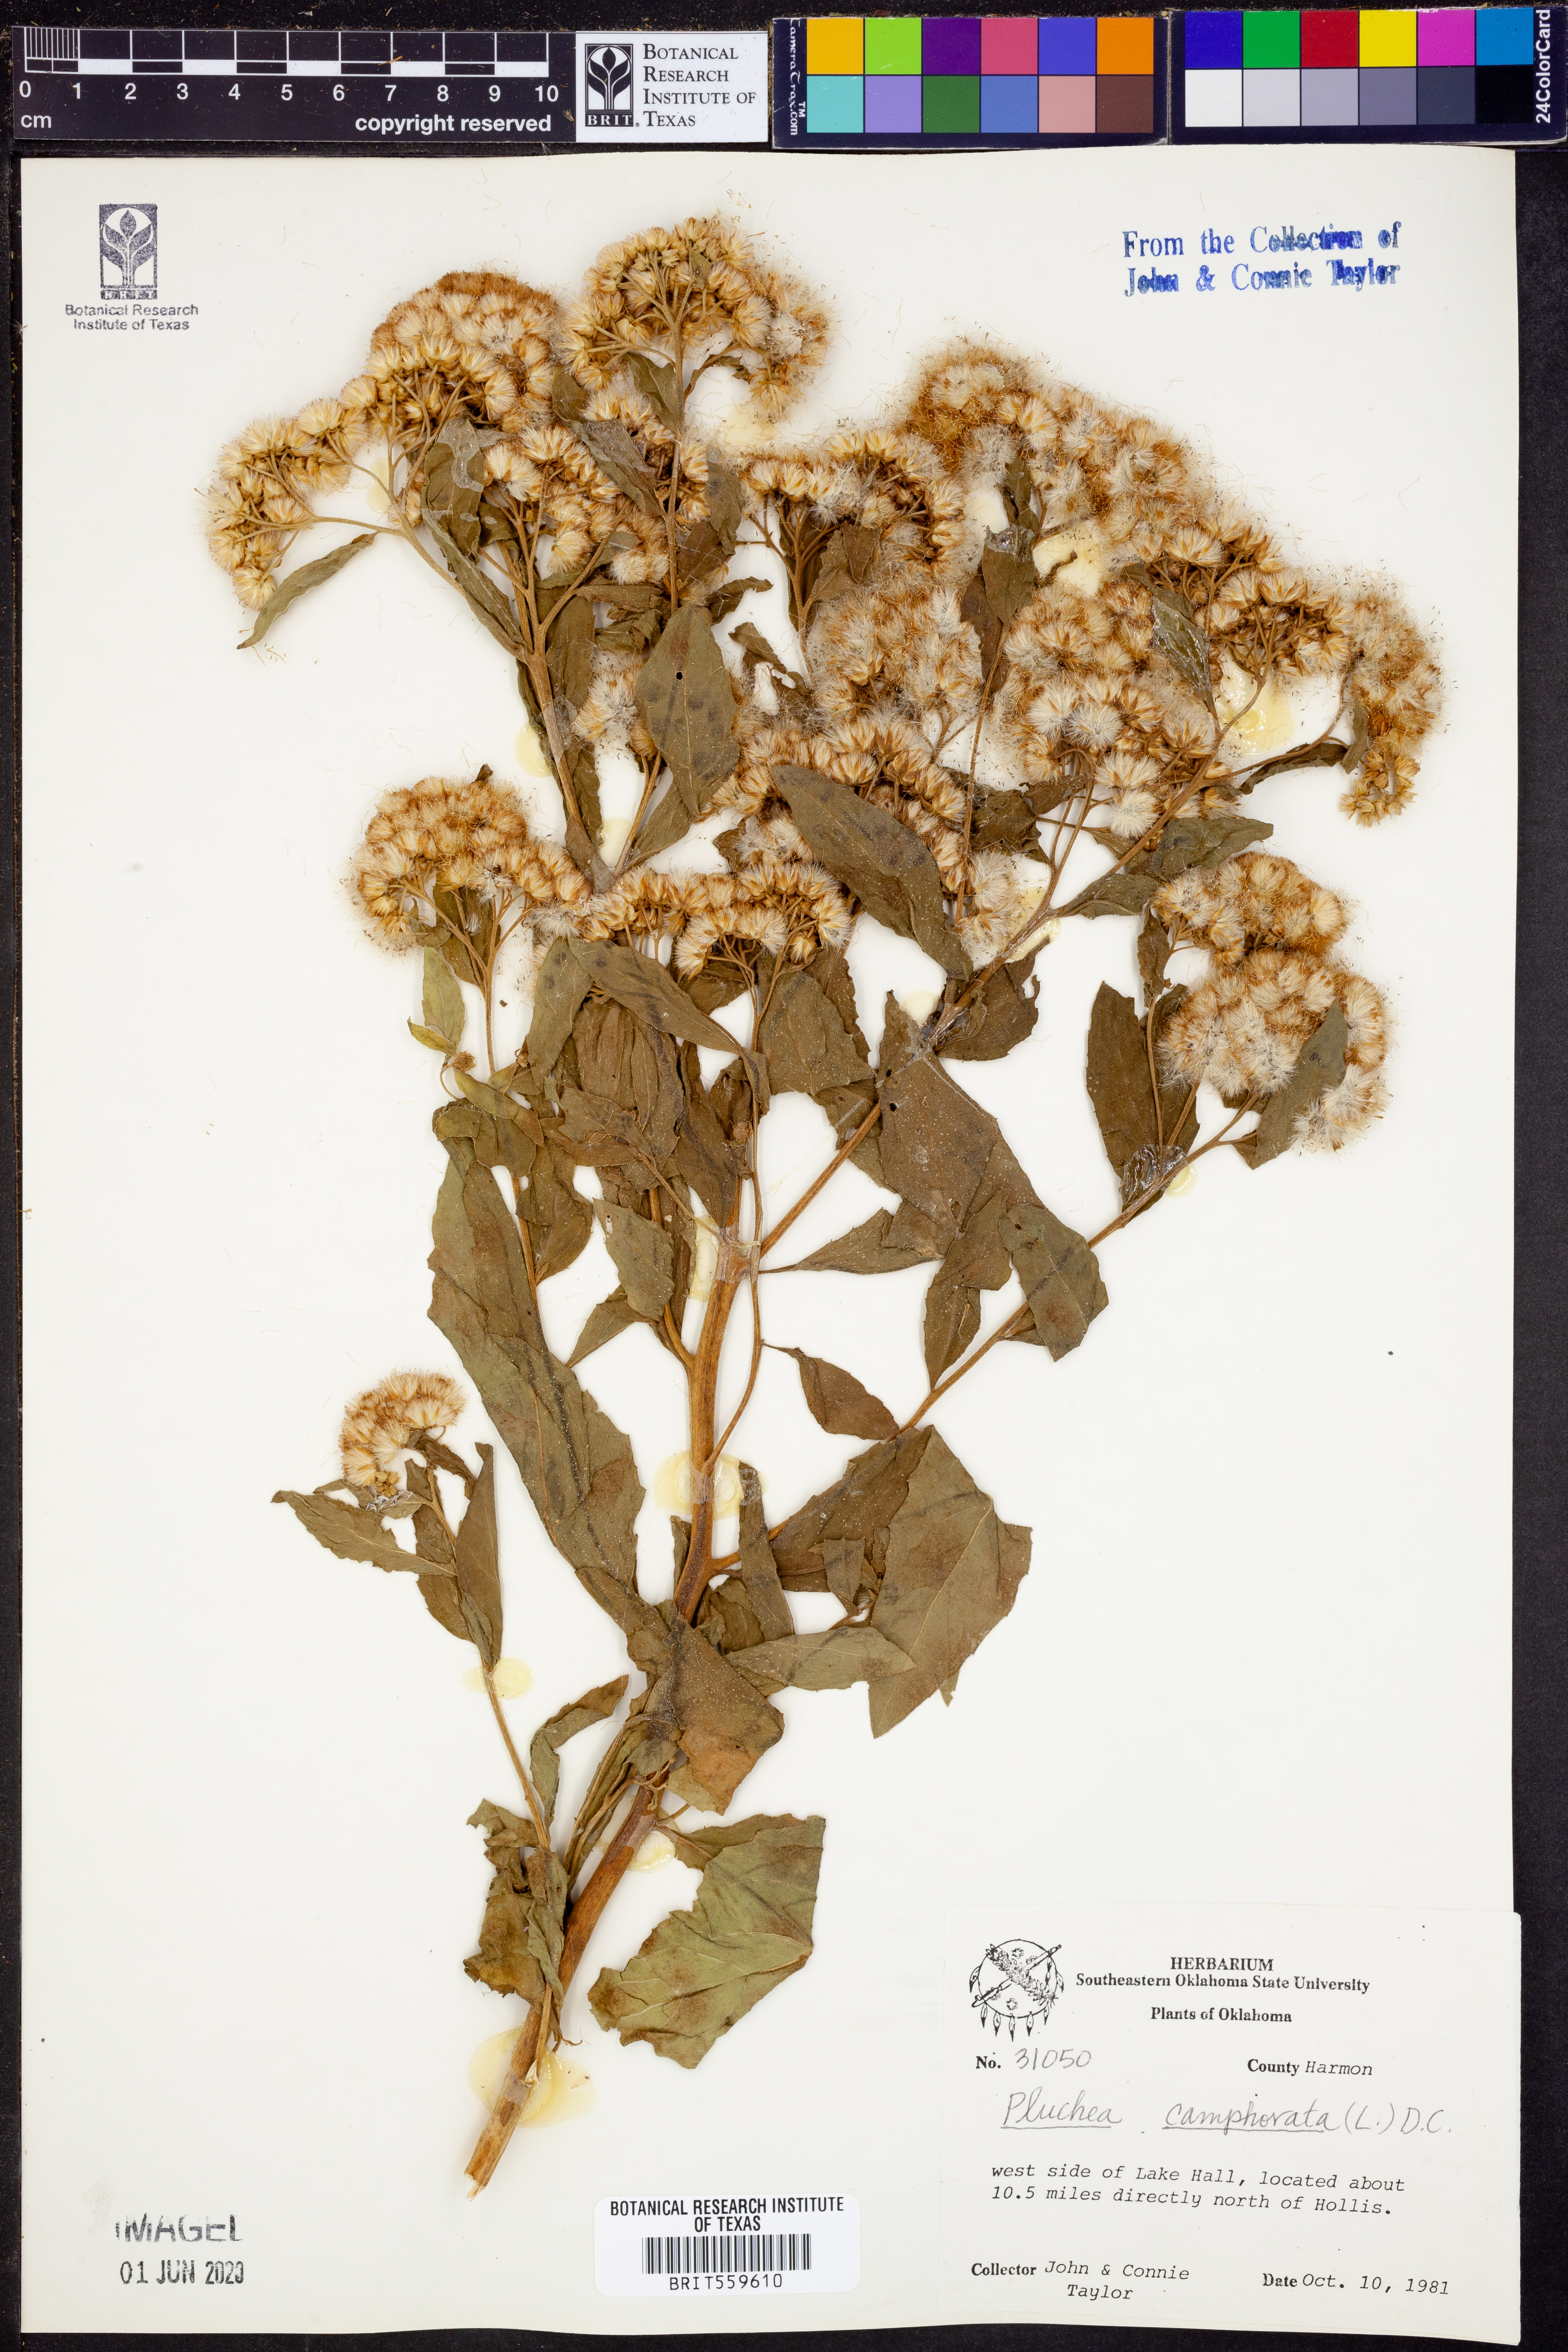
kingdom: Plantae
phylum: Tracheophyta
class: Magnoliopsida
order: Asterales
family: Asteraceae
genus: Pluchea
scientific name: Pluchea camphorata
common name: Camphor pluchea
